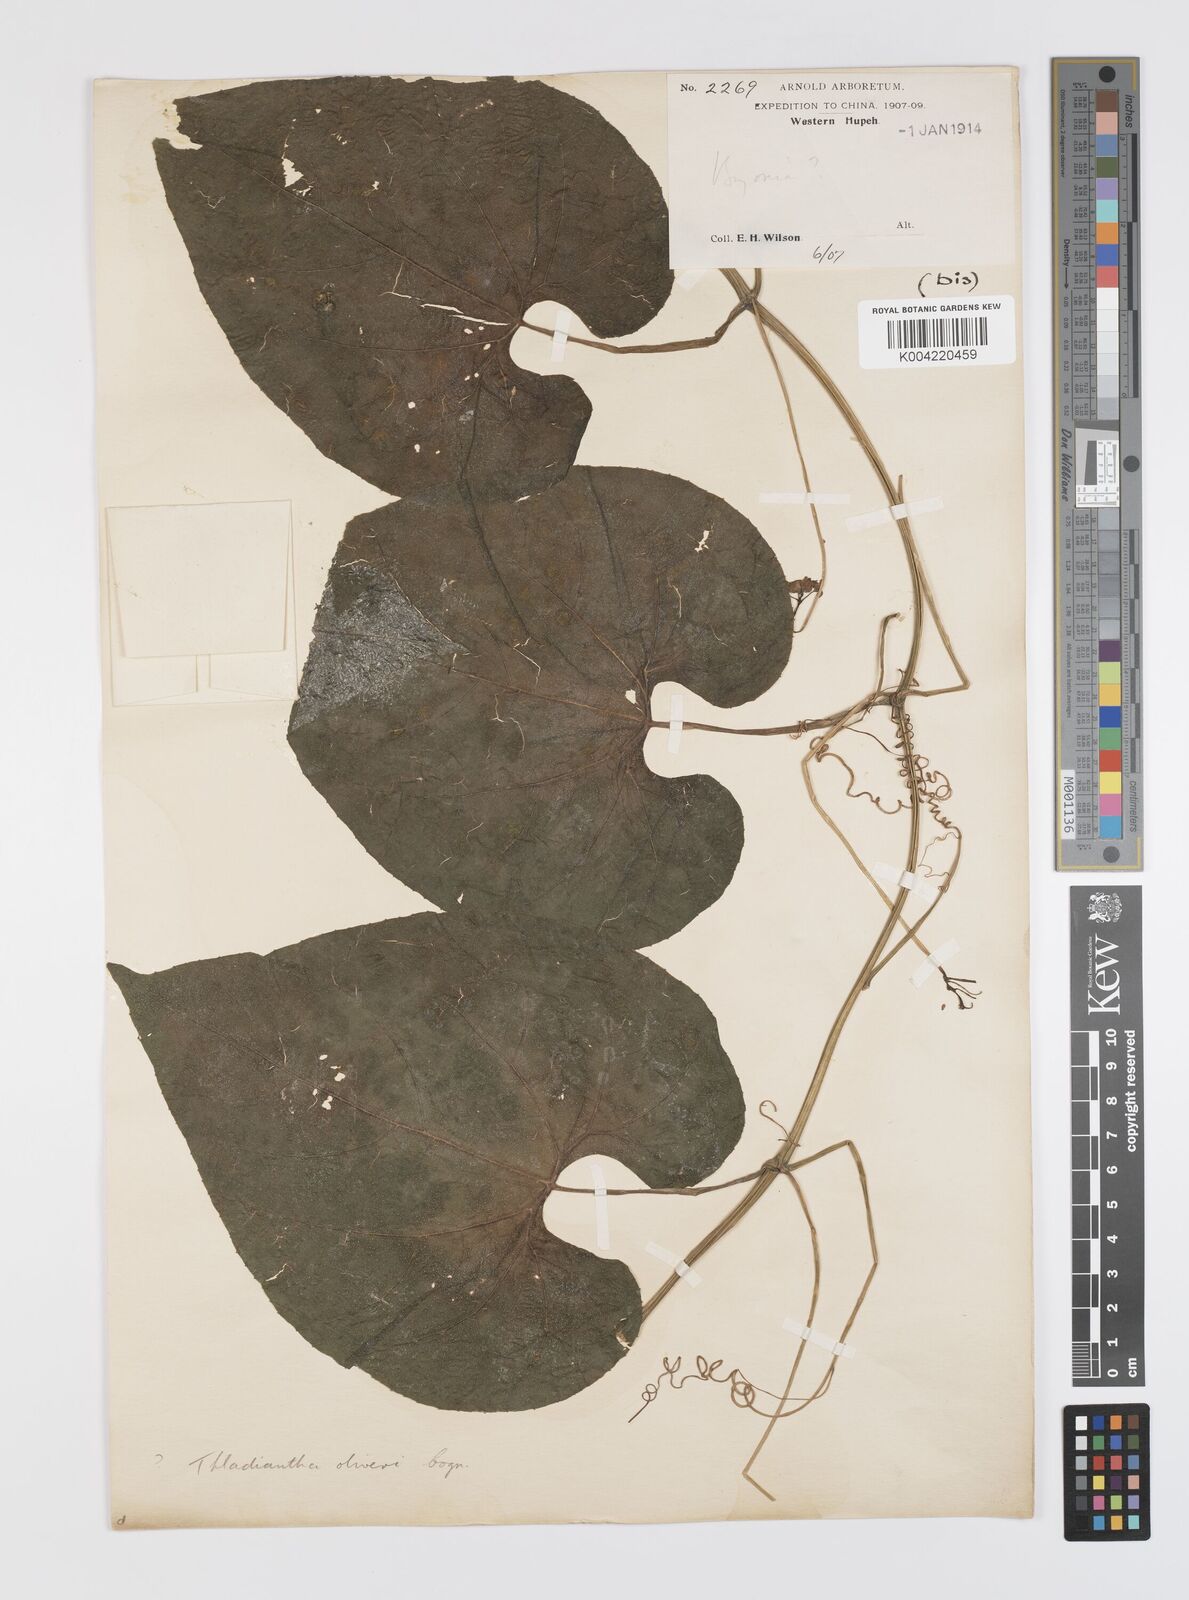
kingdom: Plantae
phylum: Tracheophyta
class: Magnoliopsida
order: Cucurbitales
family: Cucurbitaceae
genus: Thladiantha
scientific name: Thladiantha montana
